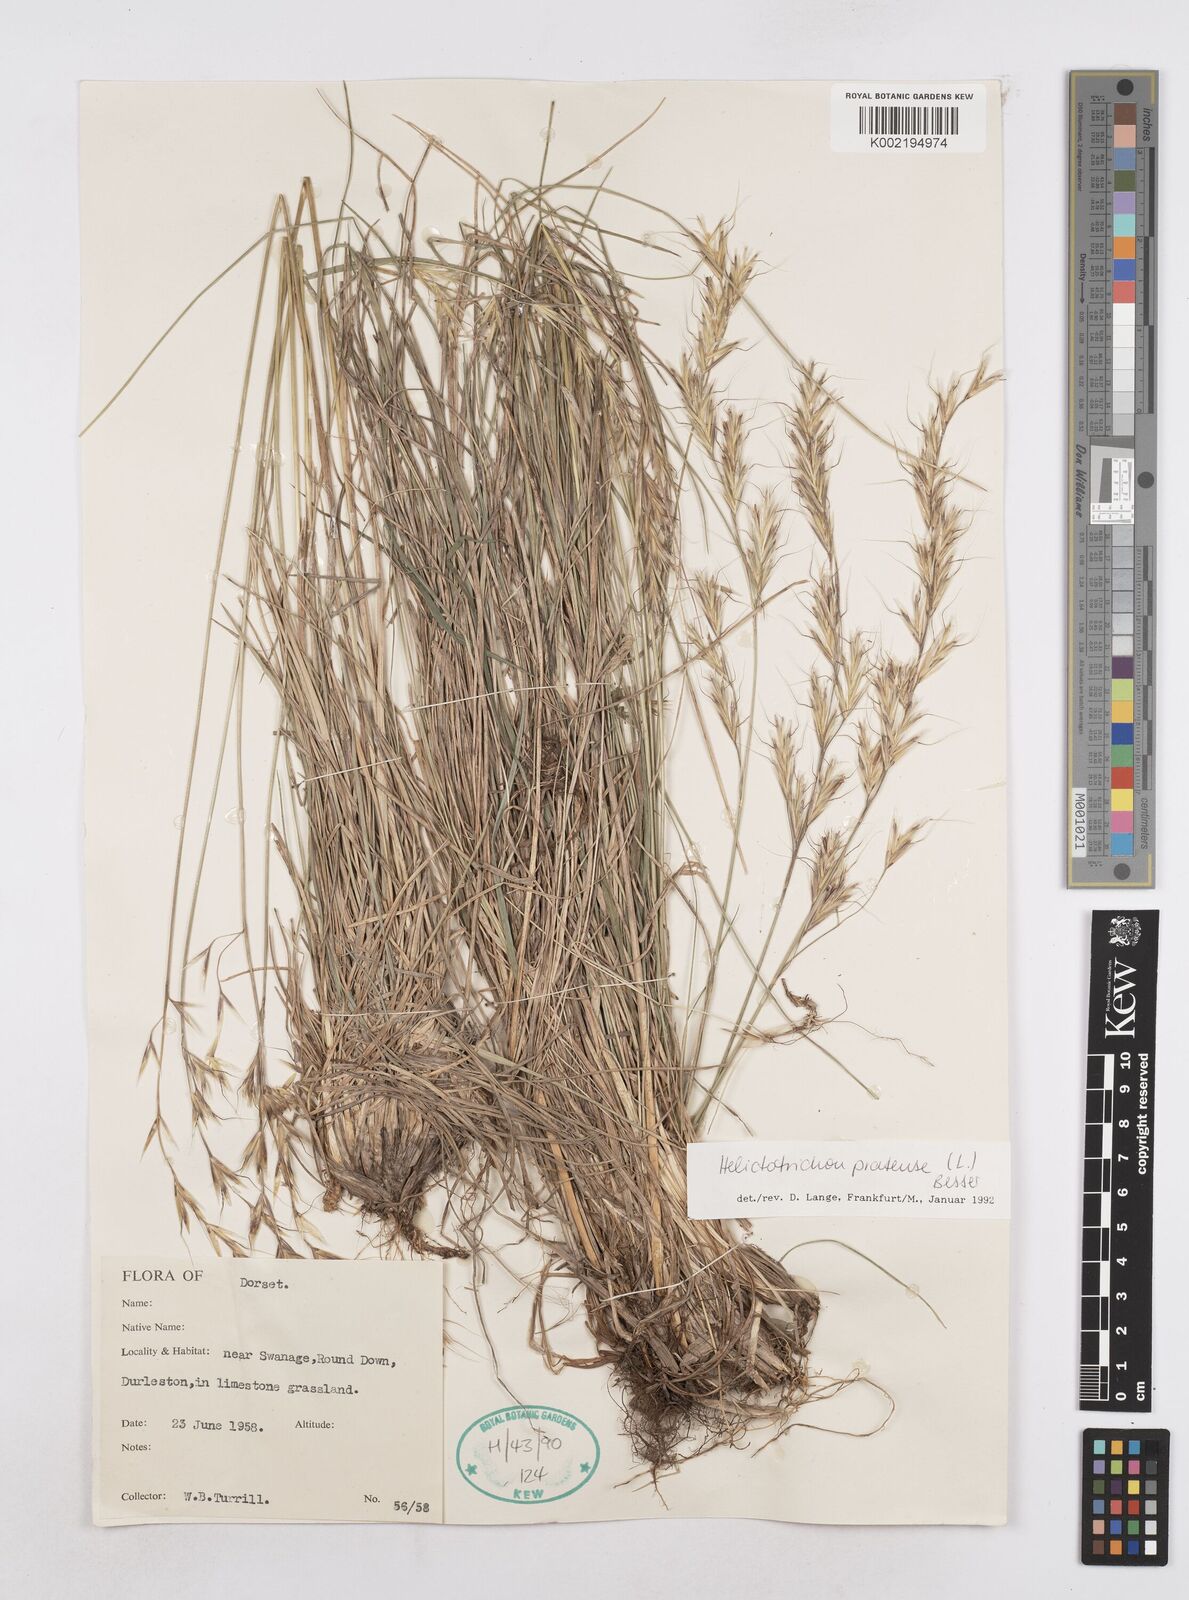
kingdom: Plantae
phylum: Tracheophyta
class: Liliopsida
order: Poales
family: Poaceae
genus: Helictochloa
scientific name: Helictochloa pratensis
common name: Meadow oat grass
